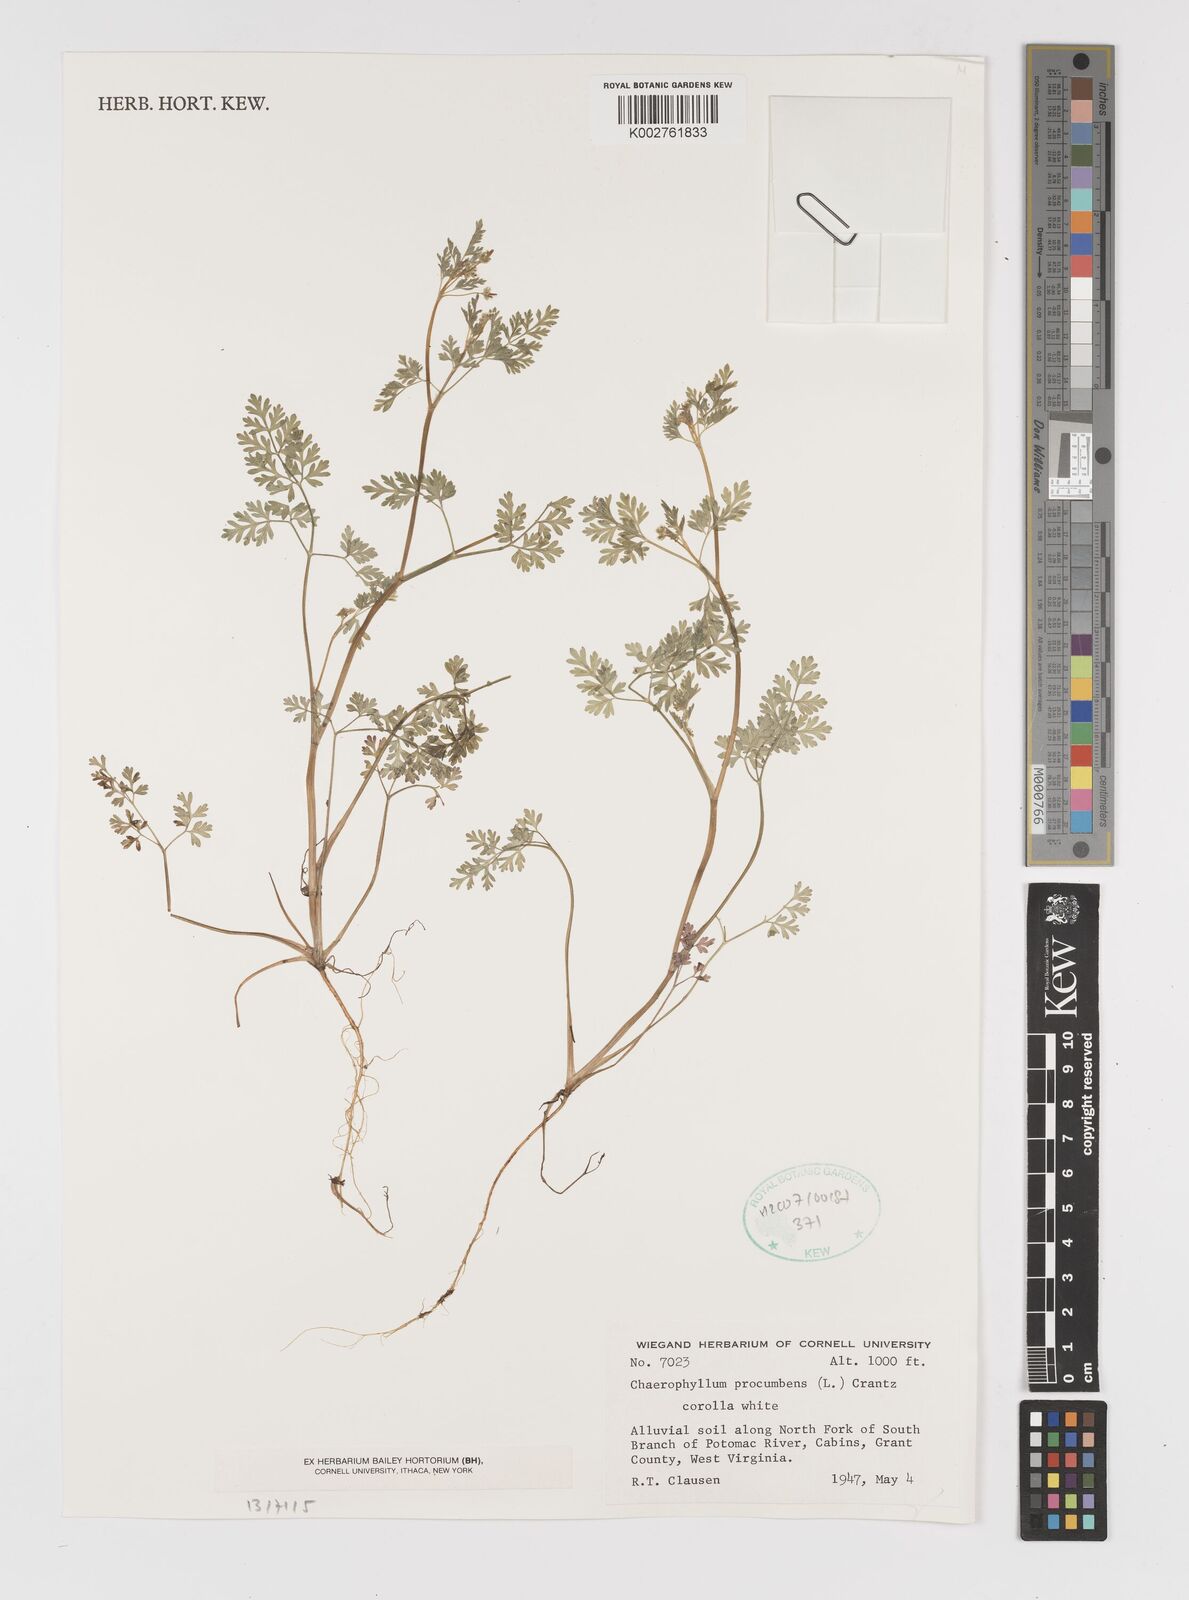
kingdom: Plantae
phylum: Tracheophyta
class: Magnoliopsida
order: Apiales
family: Apiaceae
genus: Chaerophyllum
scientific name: Chaerophyllum procumbens
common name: Spreading chervil
